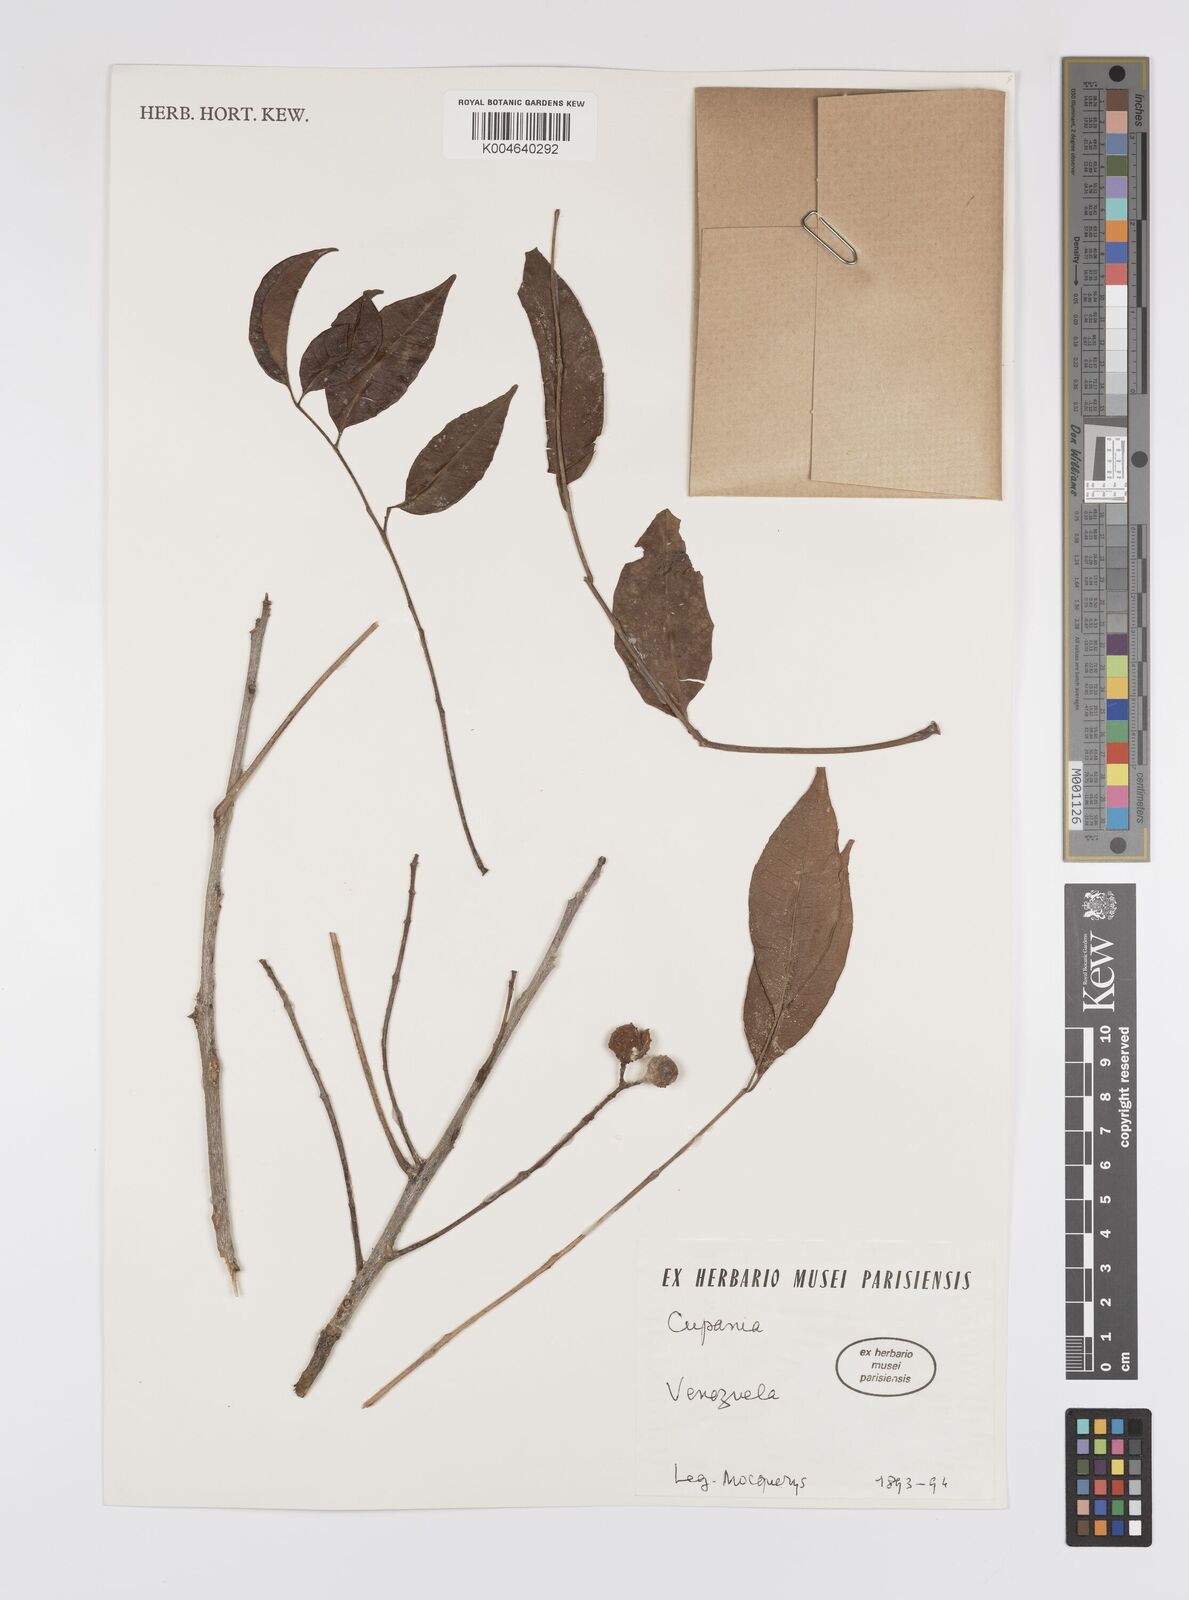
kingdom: Plantae
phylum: Tracheophyta
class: Magnoliopsida
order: Sapindales
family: Sapindaceae
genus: Cupania
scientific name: Cupania
